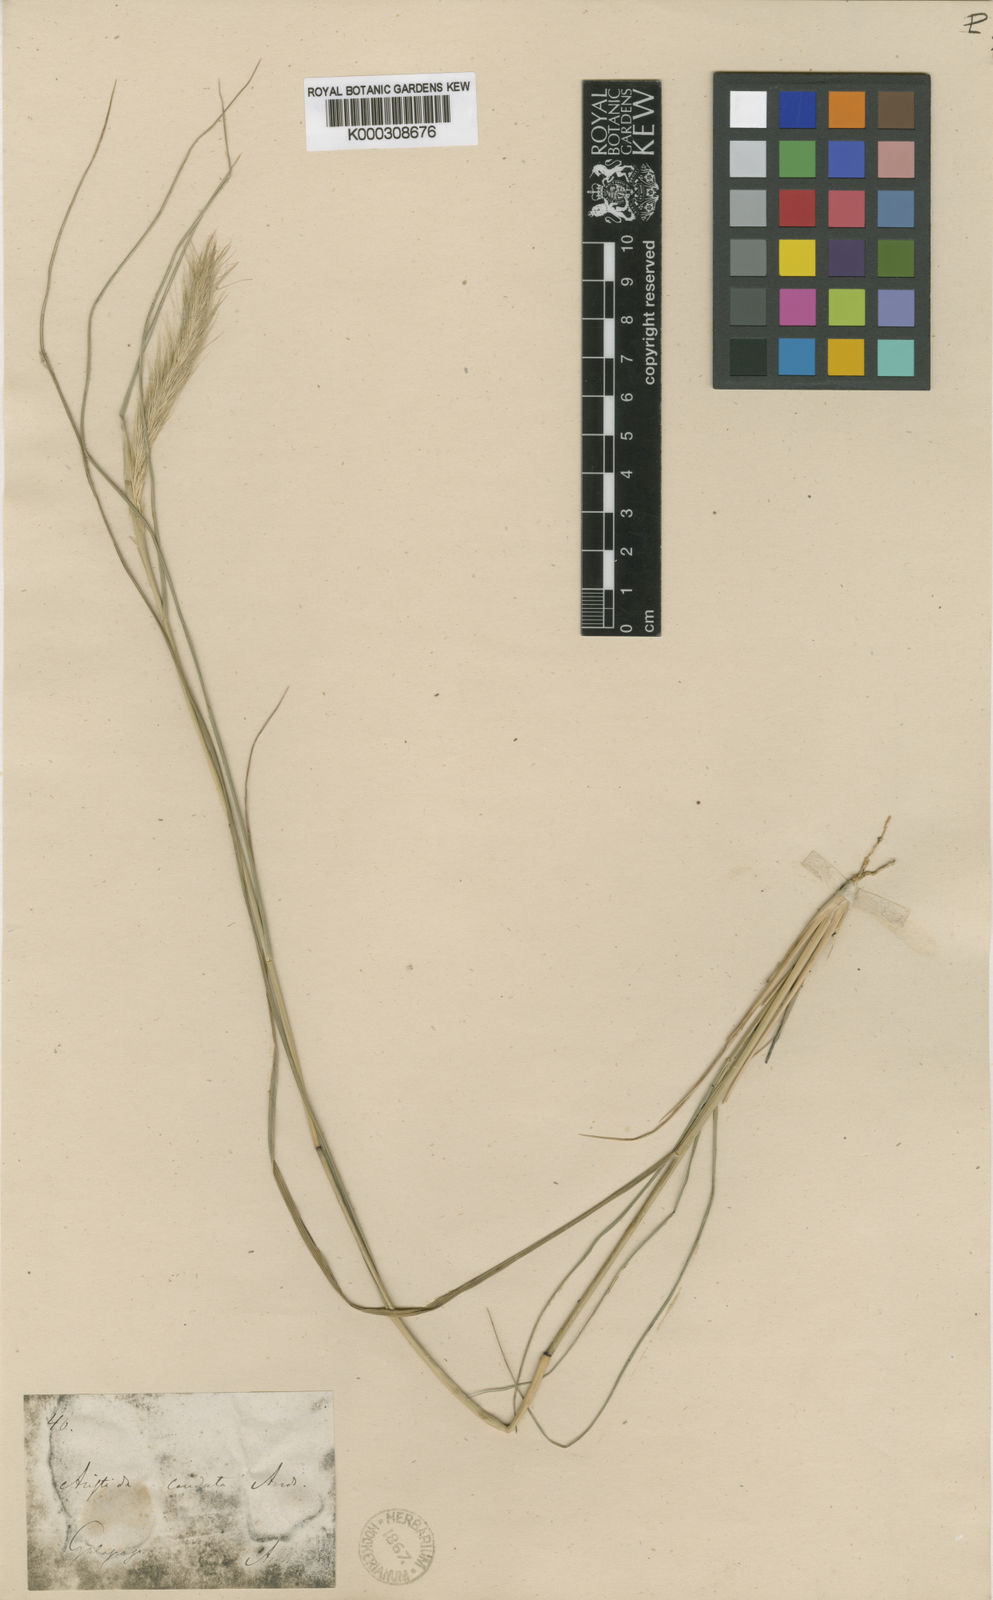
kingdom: Plantae
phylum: Tracheophyta
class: Liliopsida
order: Poales
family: Poaceae
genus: Aristida
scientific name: Aristida subspicata
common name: Galapagos three-awn grass
